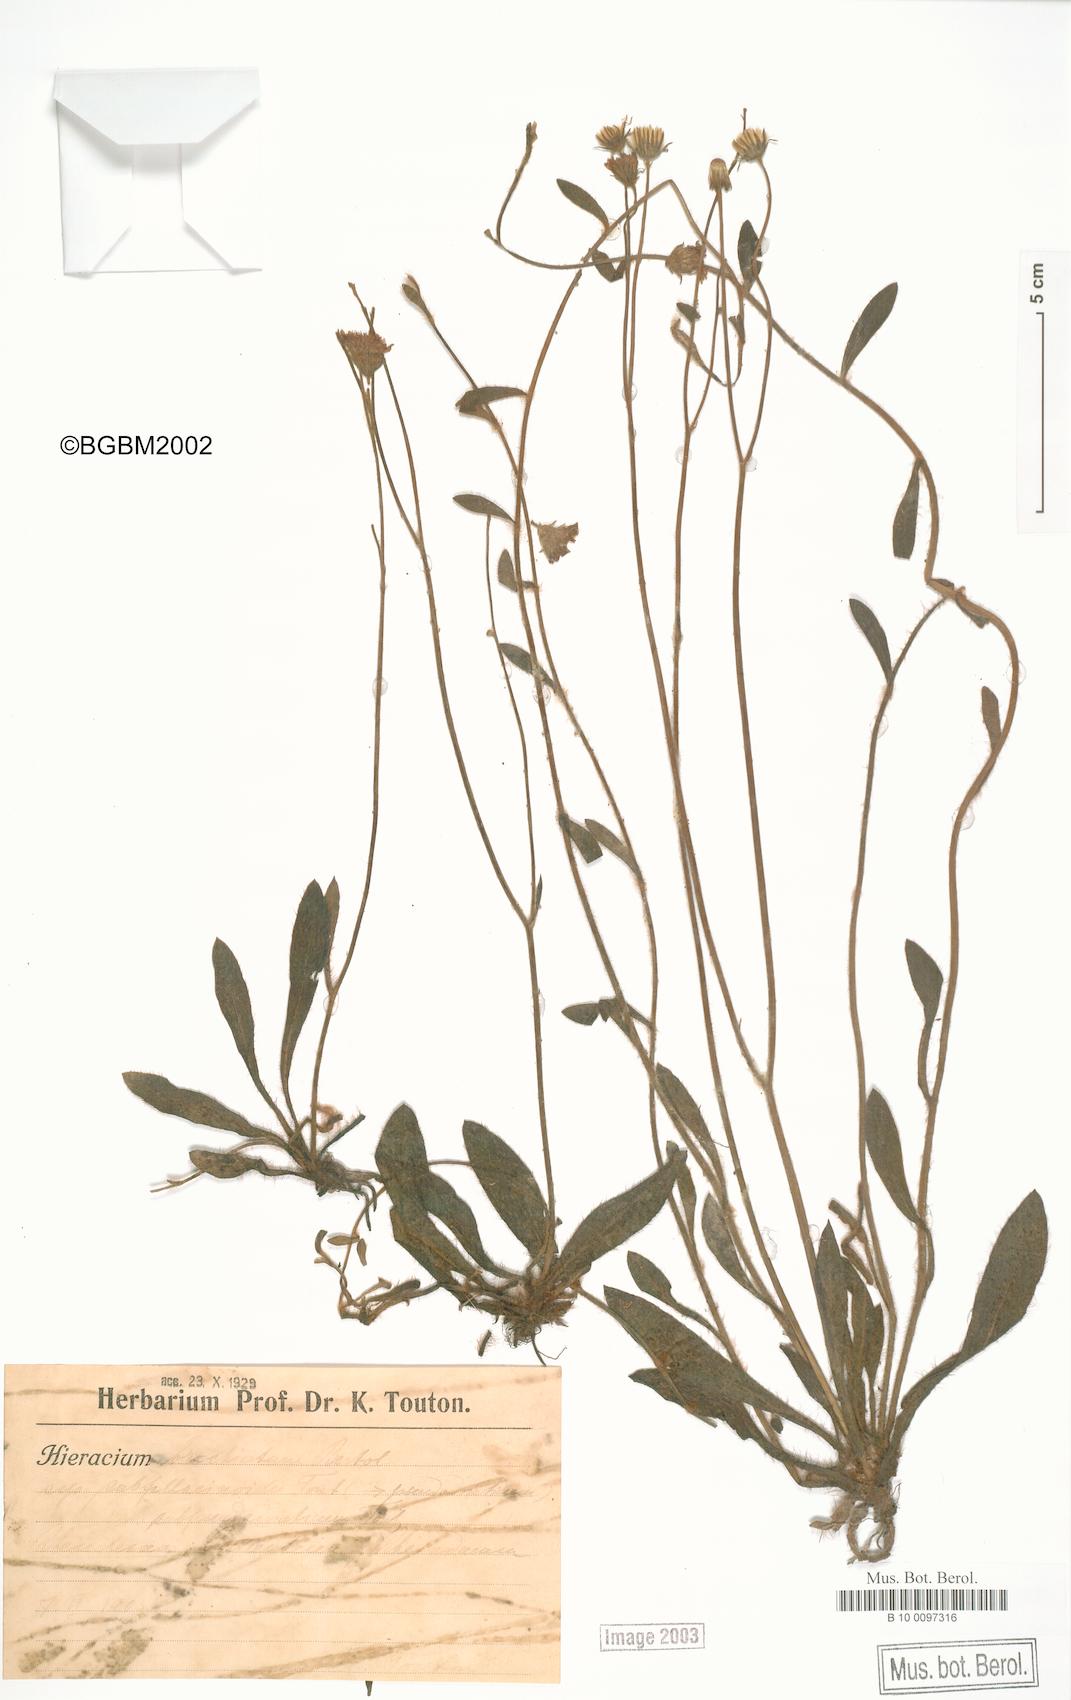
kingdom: Plantae
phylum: Tracheophyta
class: Magnoliopsida
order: Asterales
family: Asteraceae
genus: Pilosella
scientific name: Pilosella acutifolia
